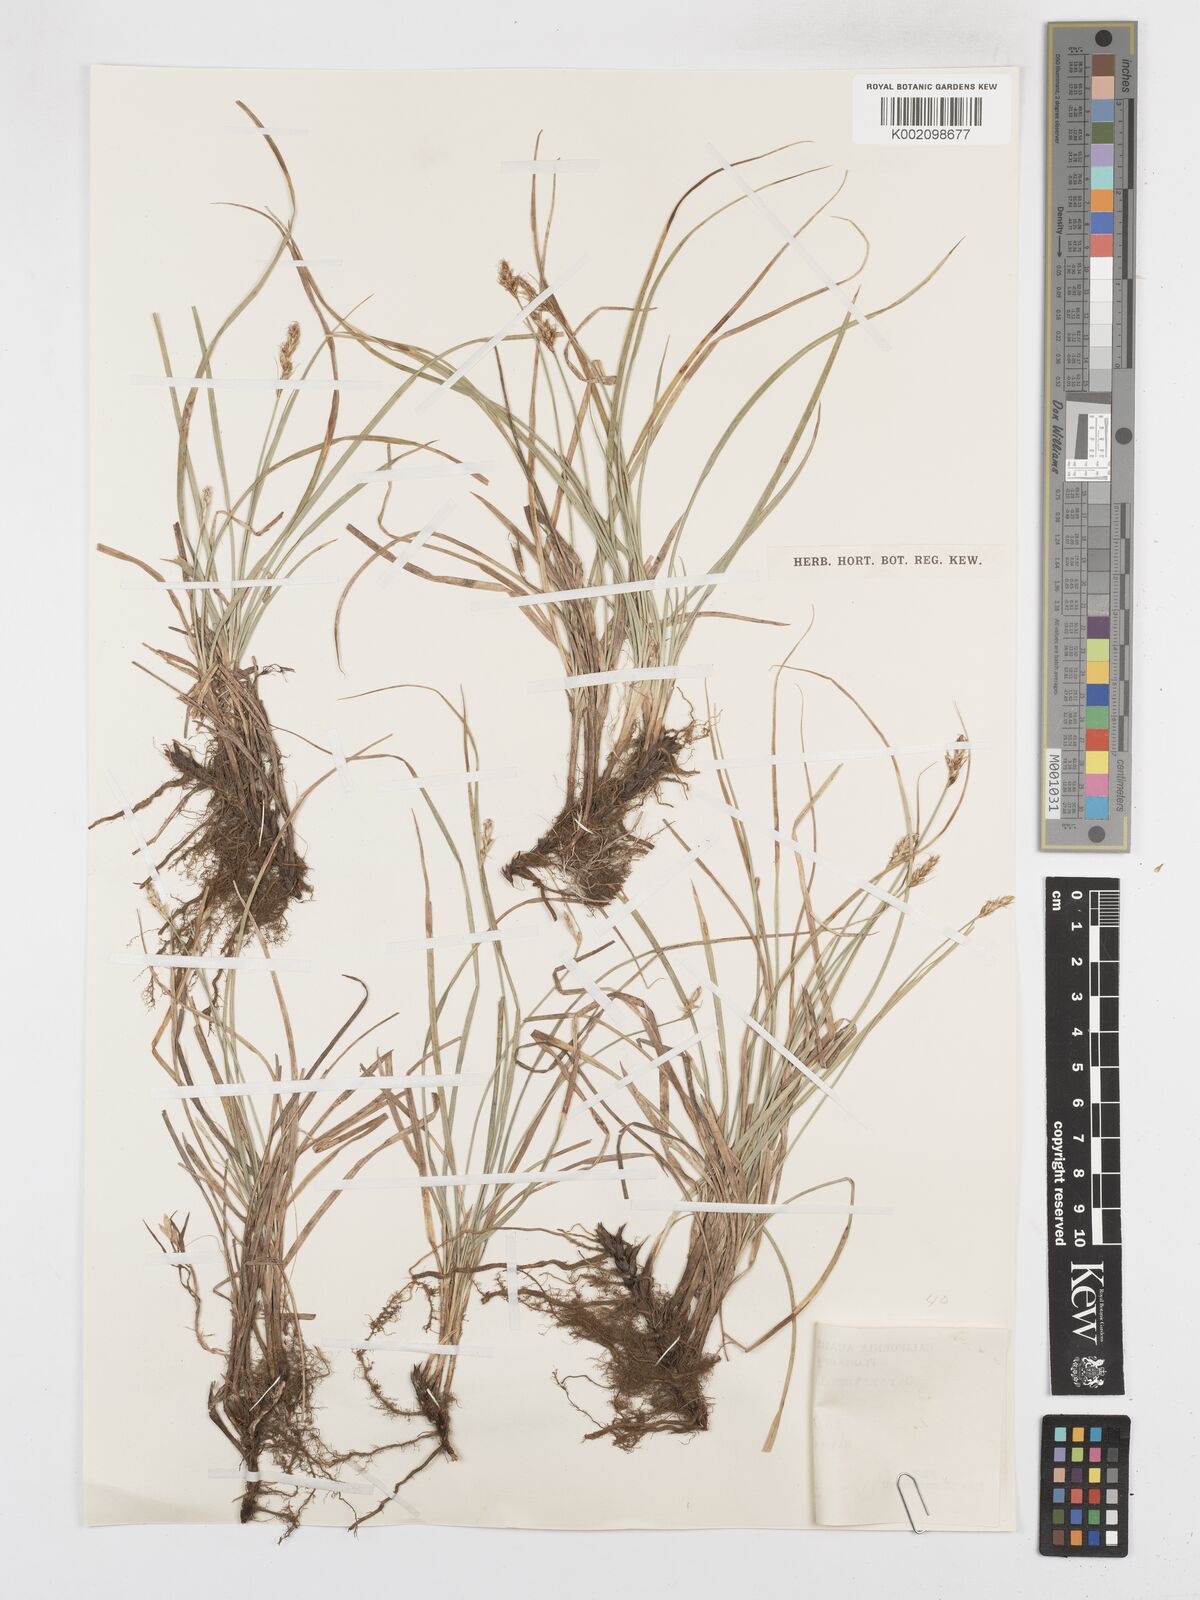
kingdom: Plantae
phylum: Tracheophyta
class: Liliopsida
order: Poales
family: Cyperaceae
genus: Carex
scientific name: Carex tumulicola
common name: Splitawn sedge
